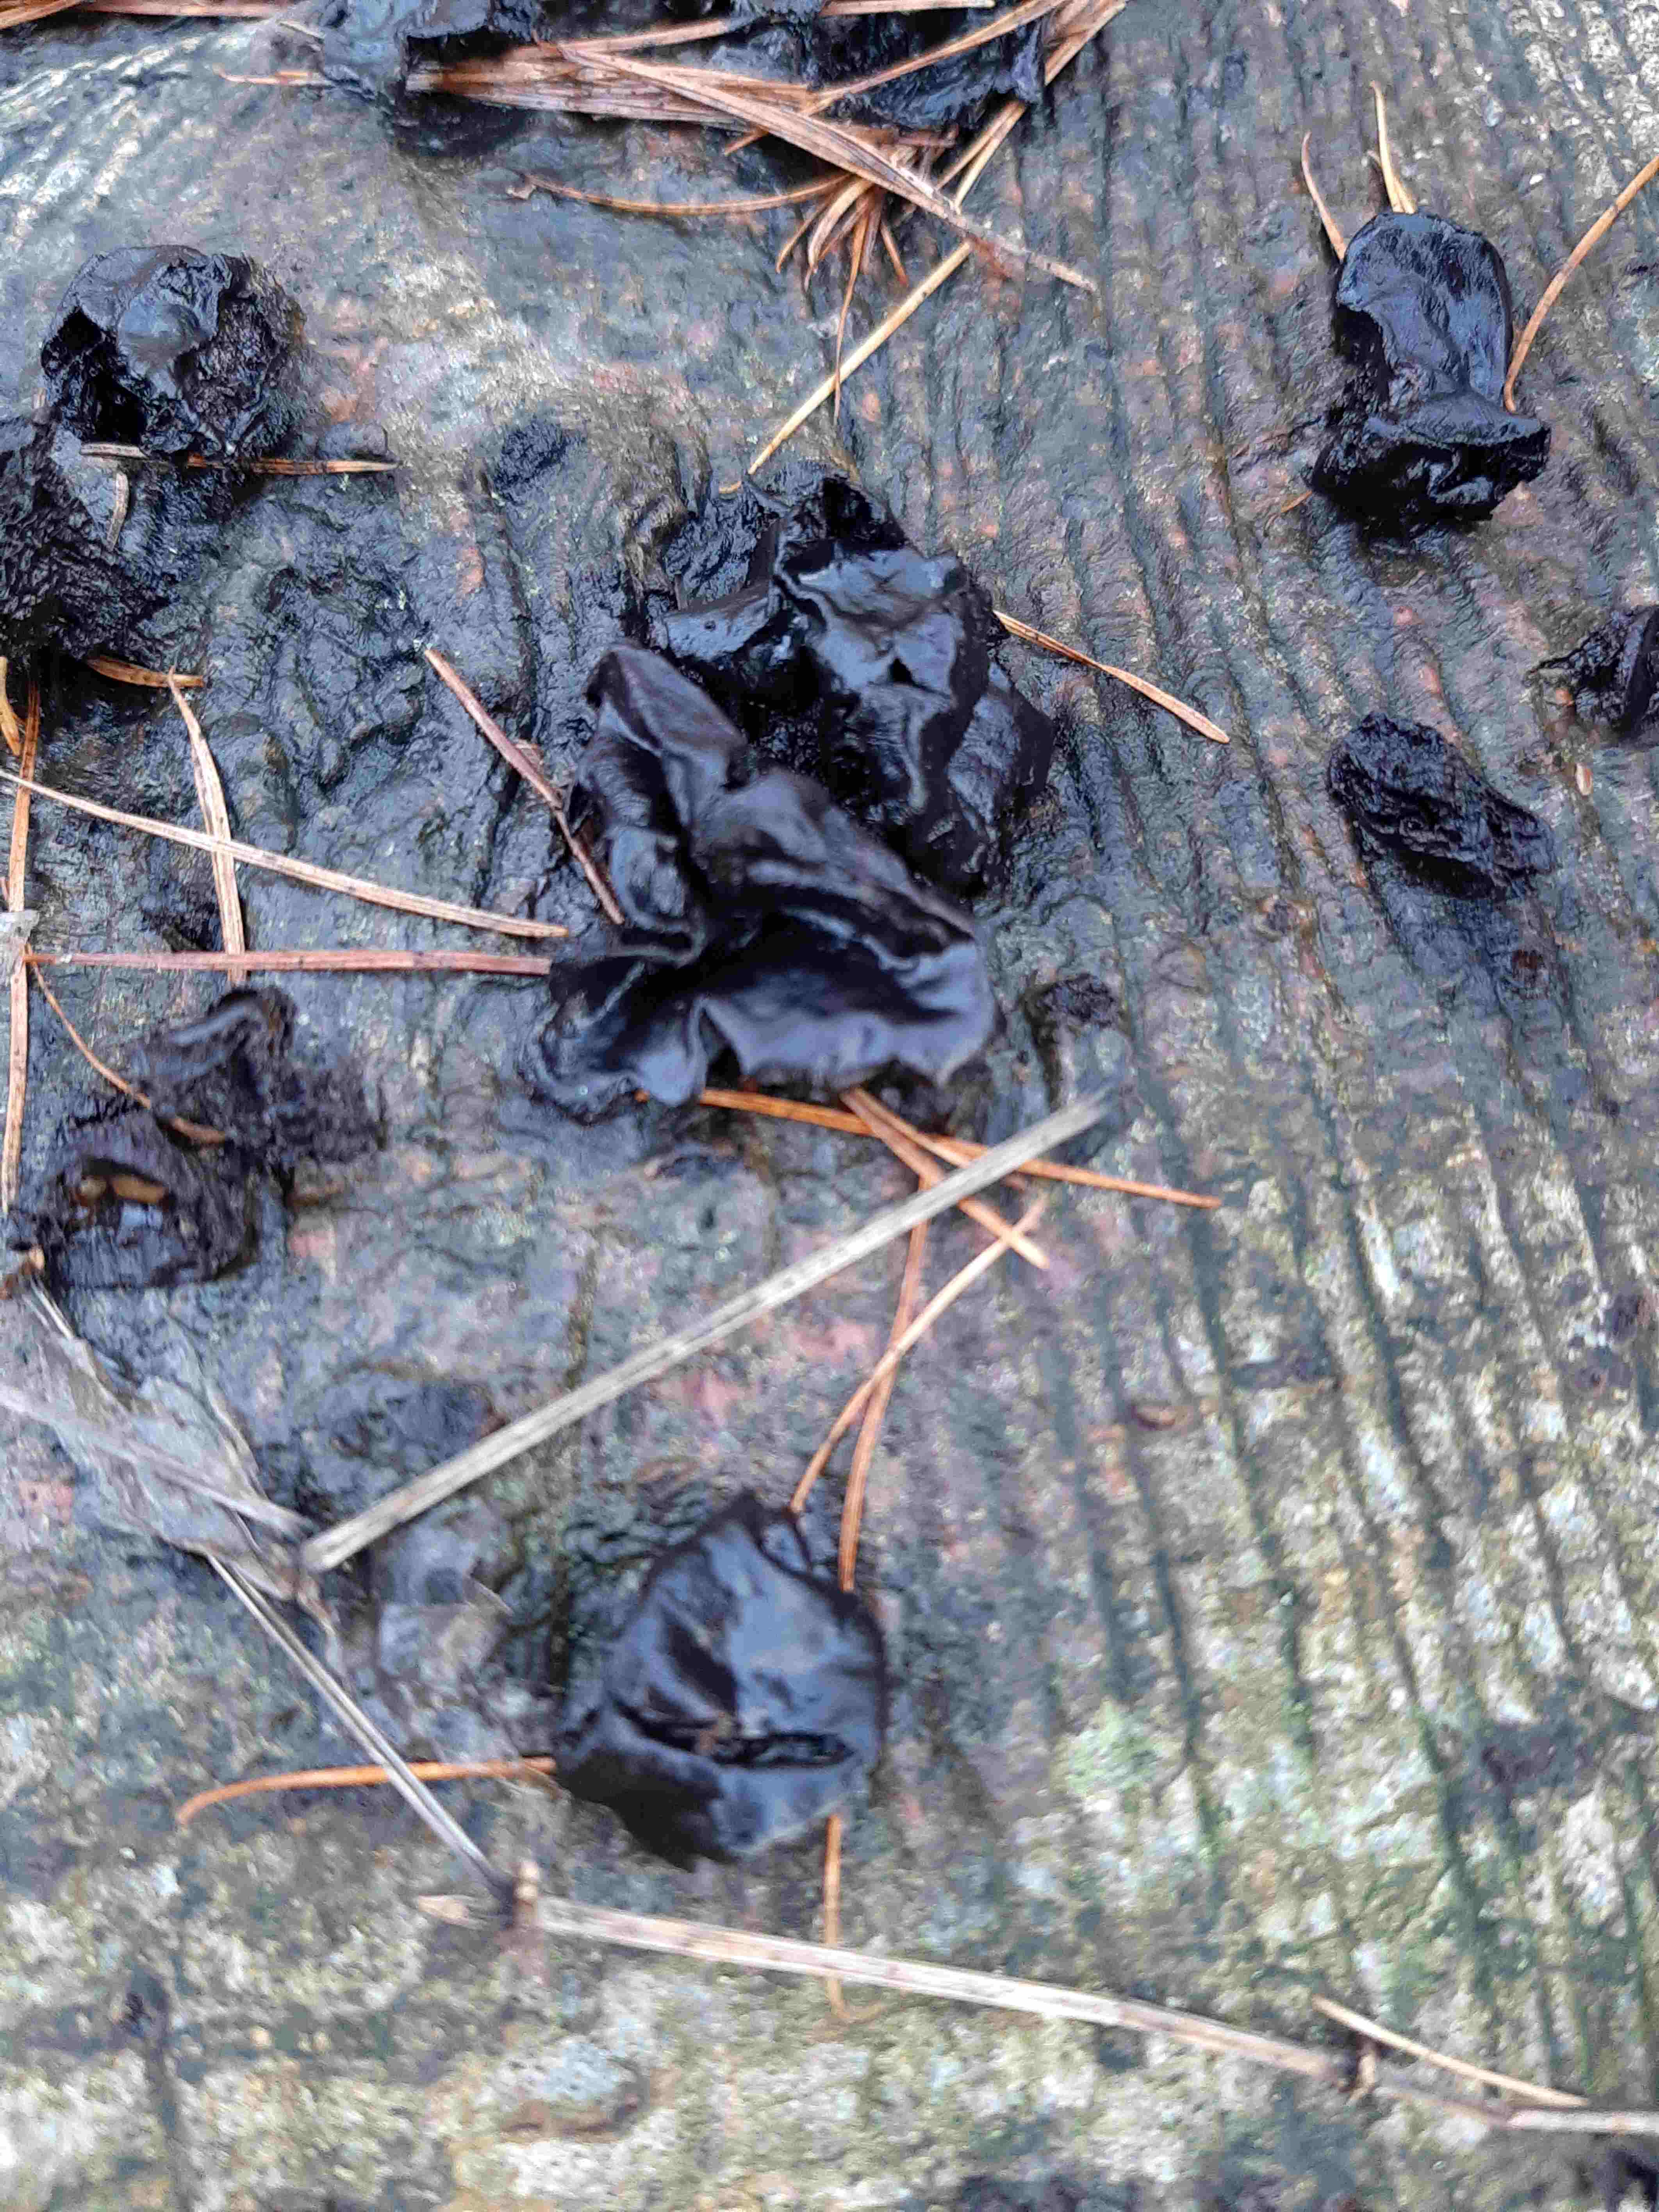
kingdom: Fungi
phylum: Basidiomycota
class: Agaricomycetes
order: Auriculariales
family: Auriculariaceae
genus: Exidia
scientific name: Exidia nigricans
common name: almindelig bævretop
